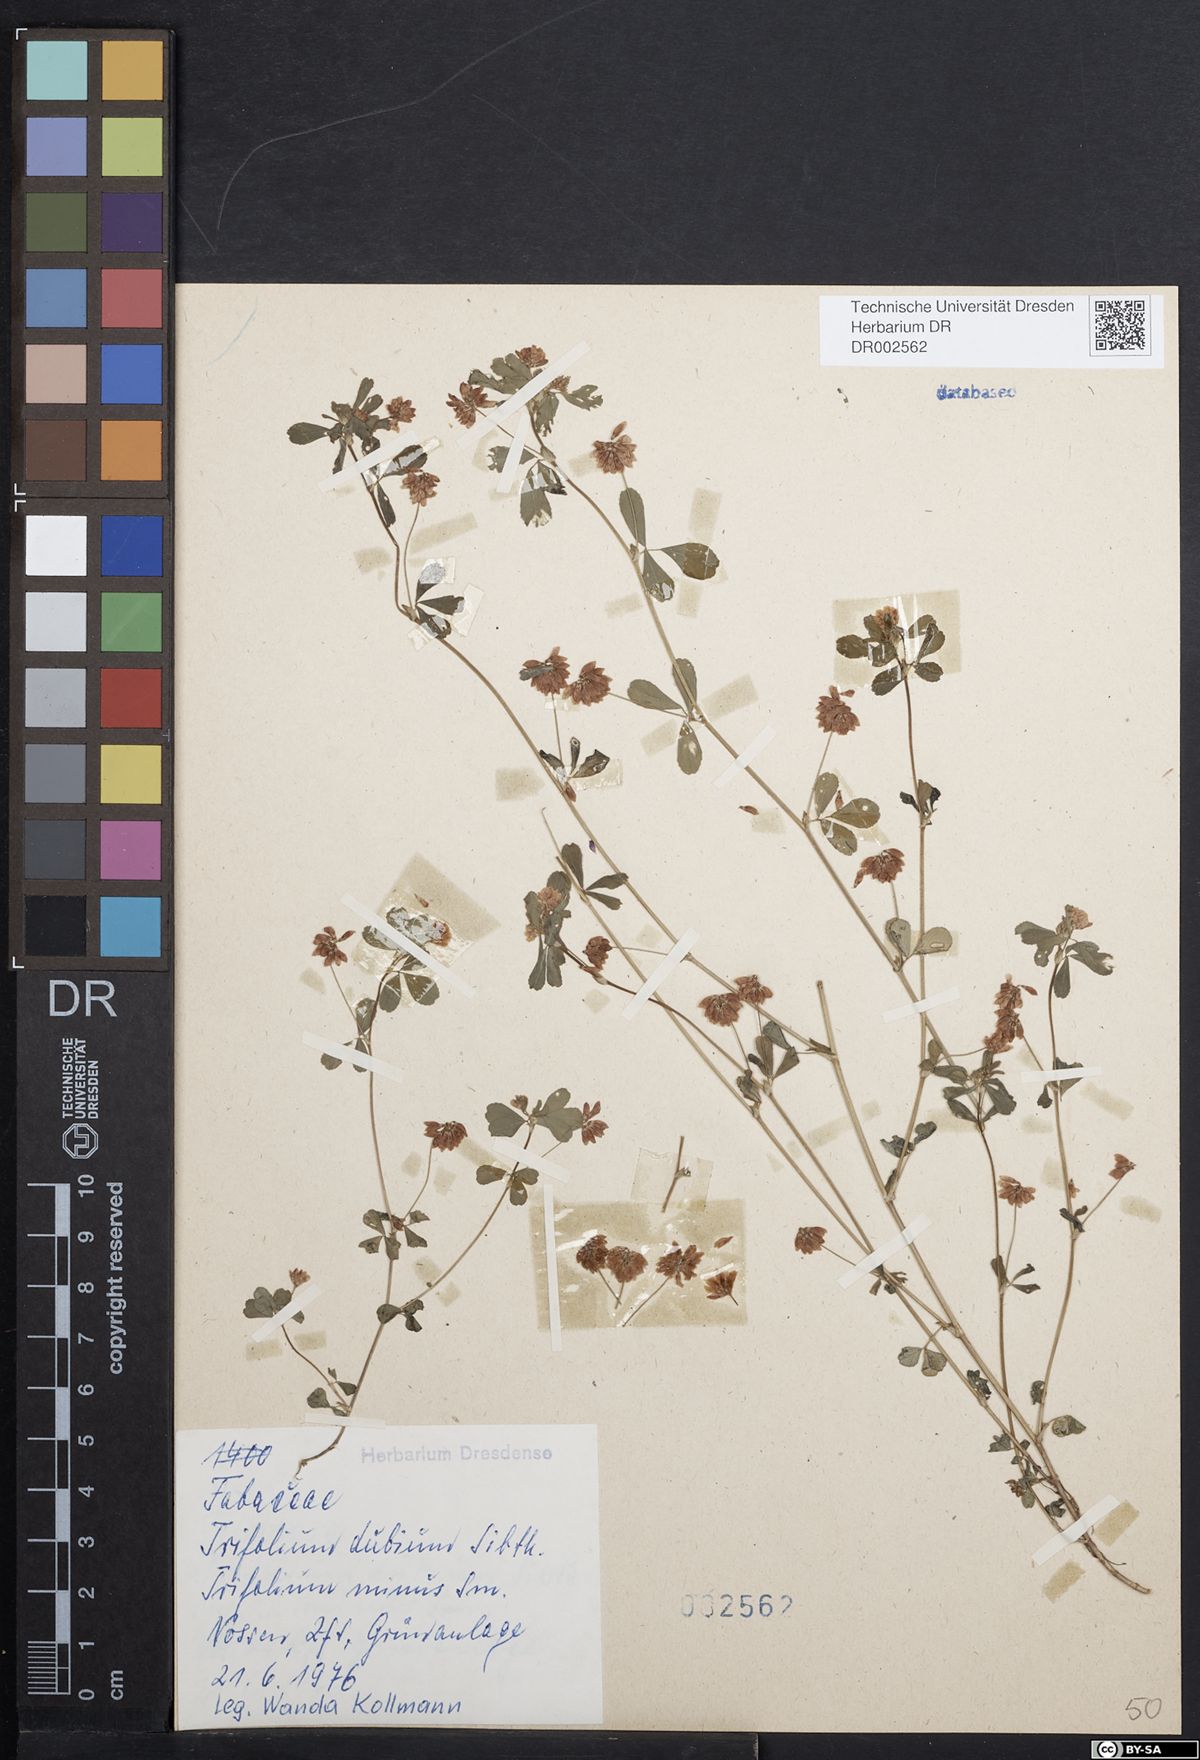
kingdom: Plantae
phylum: Tracheophyta
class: Magnoliopsida
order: Fabales
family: Fabaceae
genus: Trifolium
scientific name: Trifolium dubium
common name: Suckling clover
